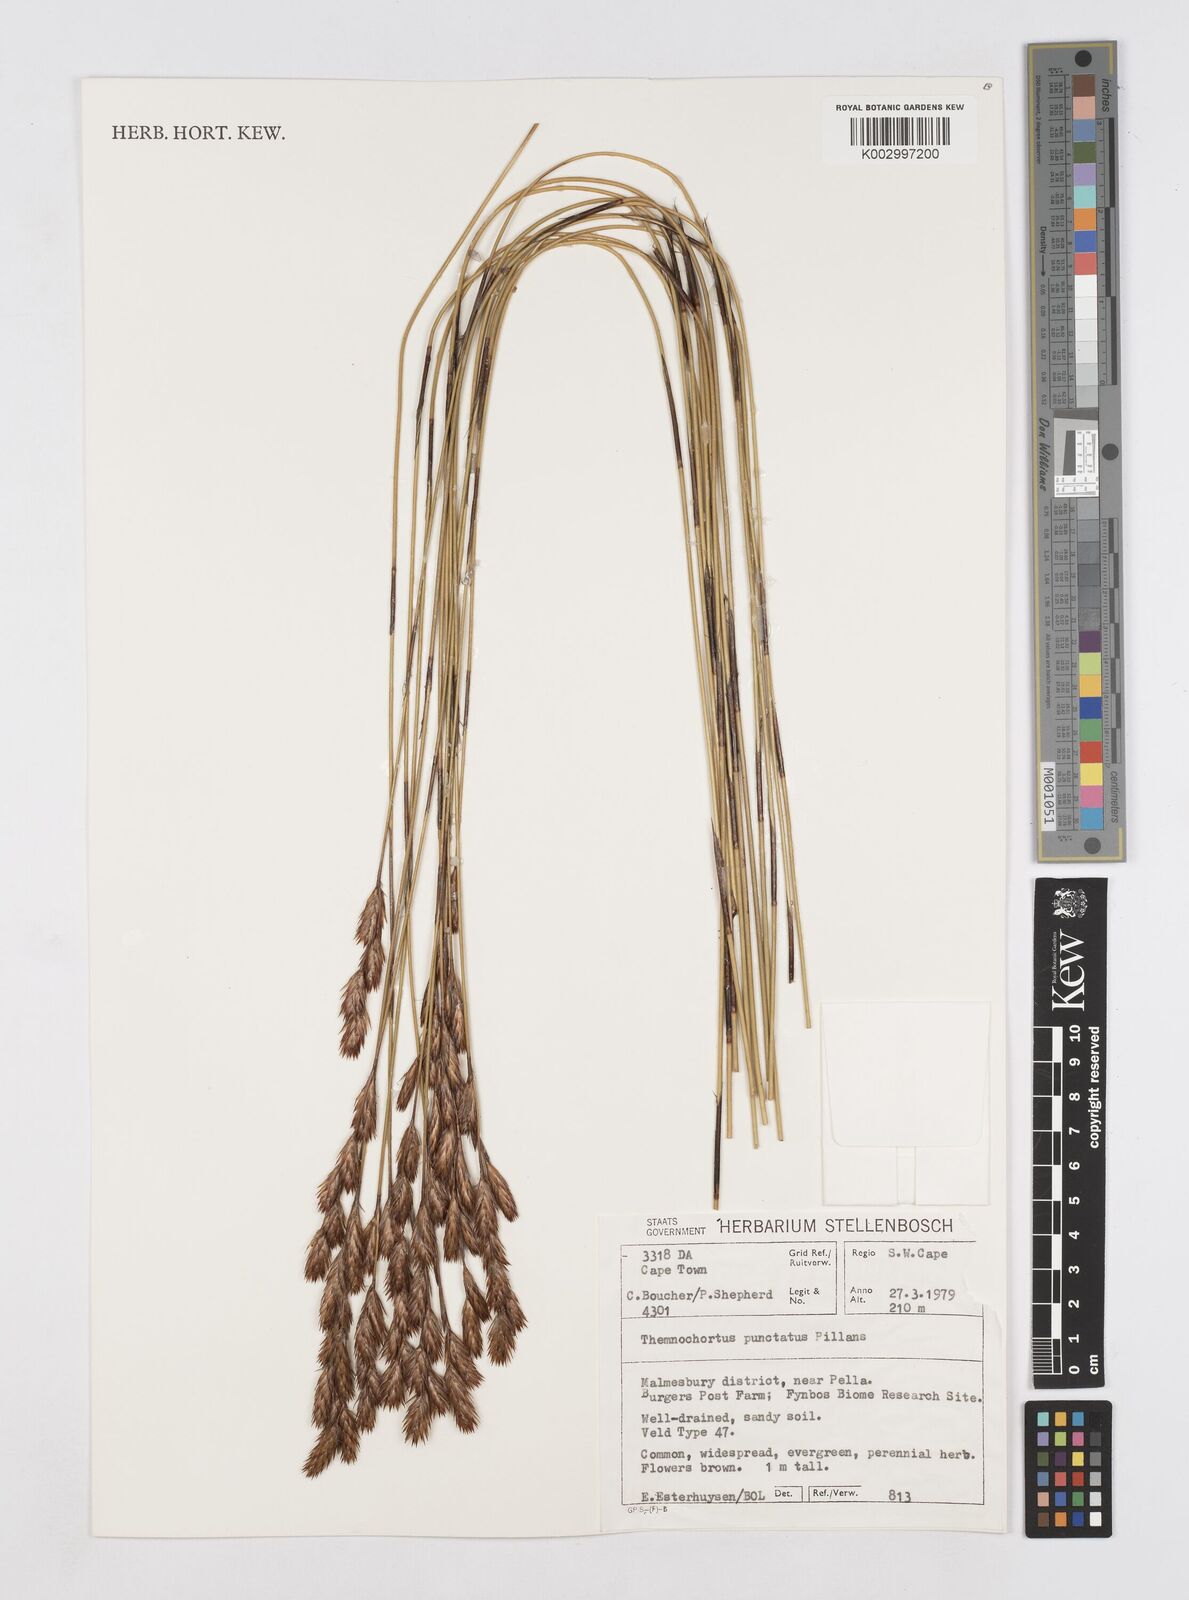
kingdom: Plantae
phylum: Tracheophyta
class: Liliopsida
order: Poales
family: Restionaceae
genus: Thamnochortus
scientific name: Thamnochortus punctatus
